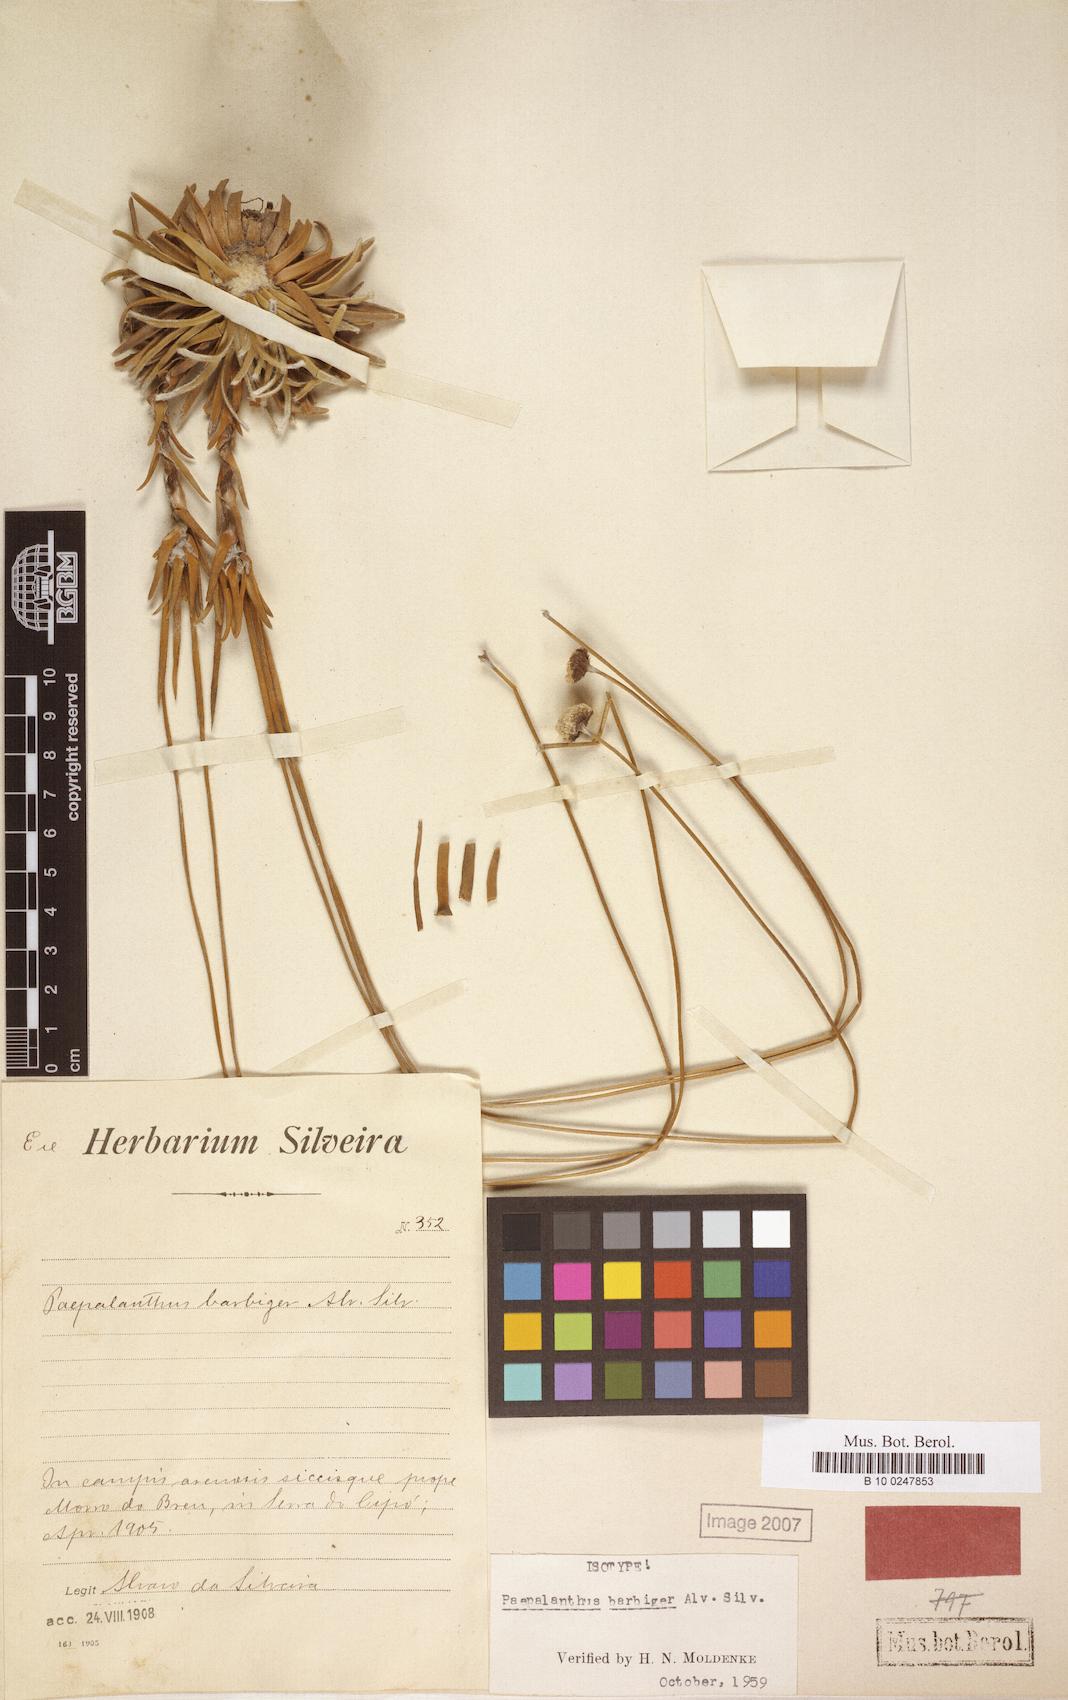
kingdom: Plantae
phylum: Tracheophyta
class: Liliopsida
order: Poales
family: Eriocaulaceae
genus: Paepalanthus
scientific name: Paepalanthus barbiger
